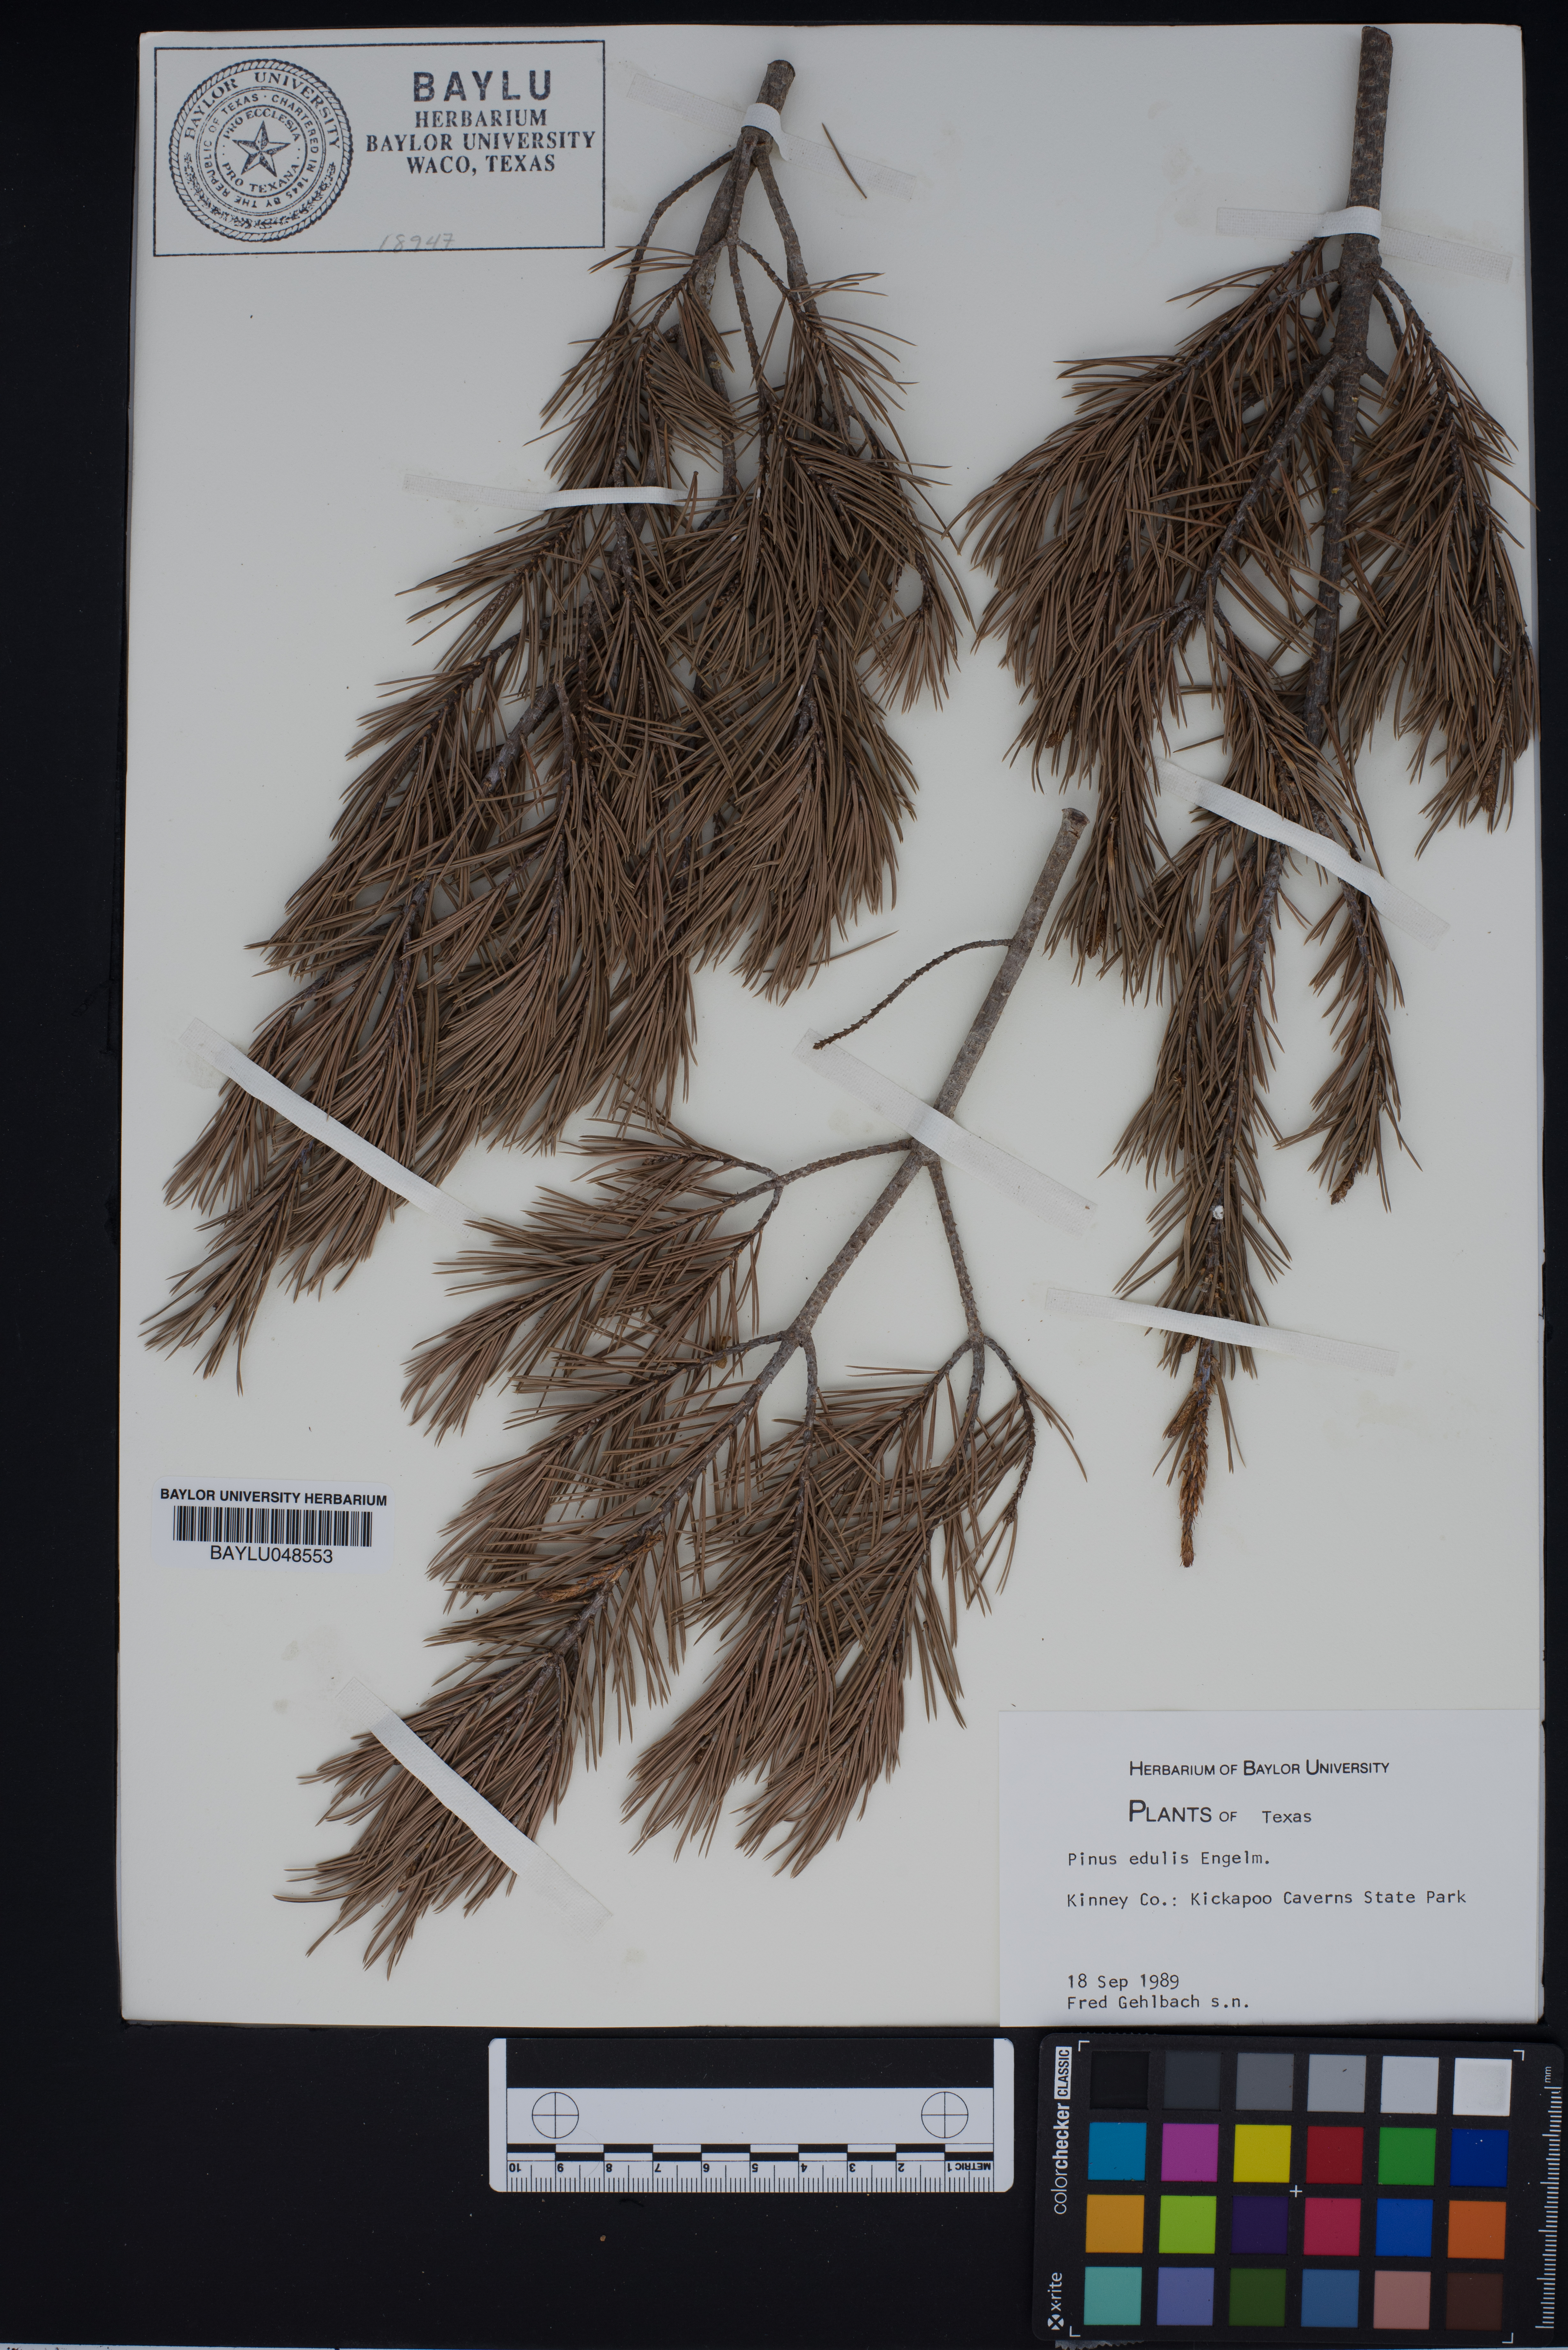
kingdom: Plantae
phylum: Tracheophyta
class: Pinopsida
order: Pinales
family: Pinaceae
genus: Pinus
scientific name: Pinus edulis
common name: Colorado pinyon
